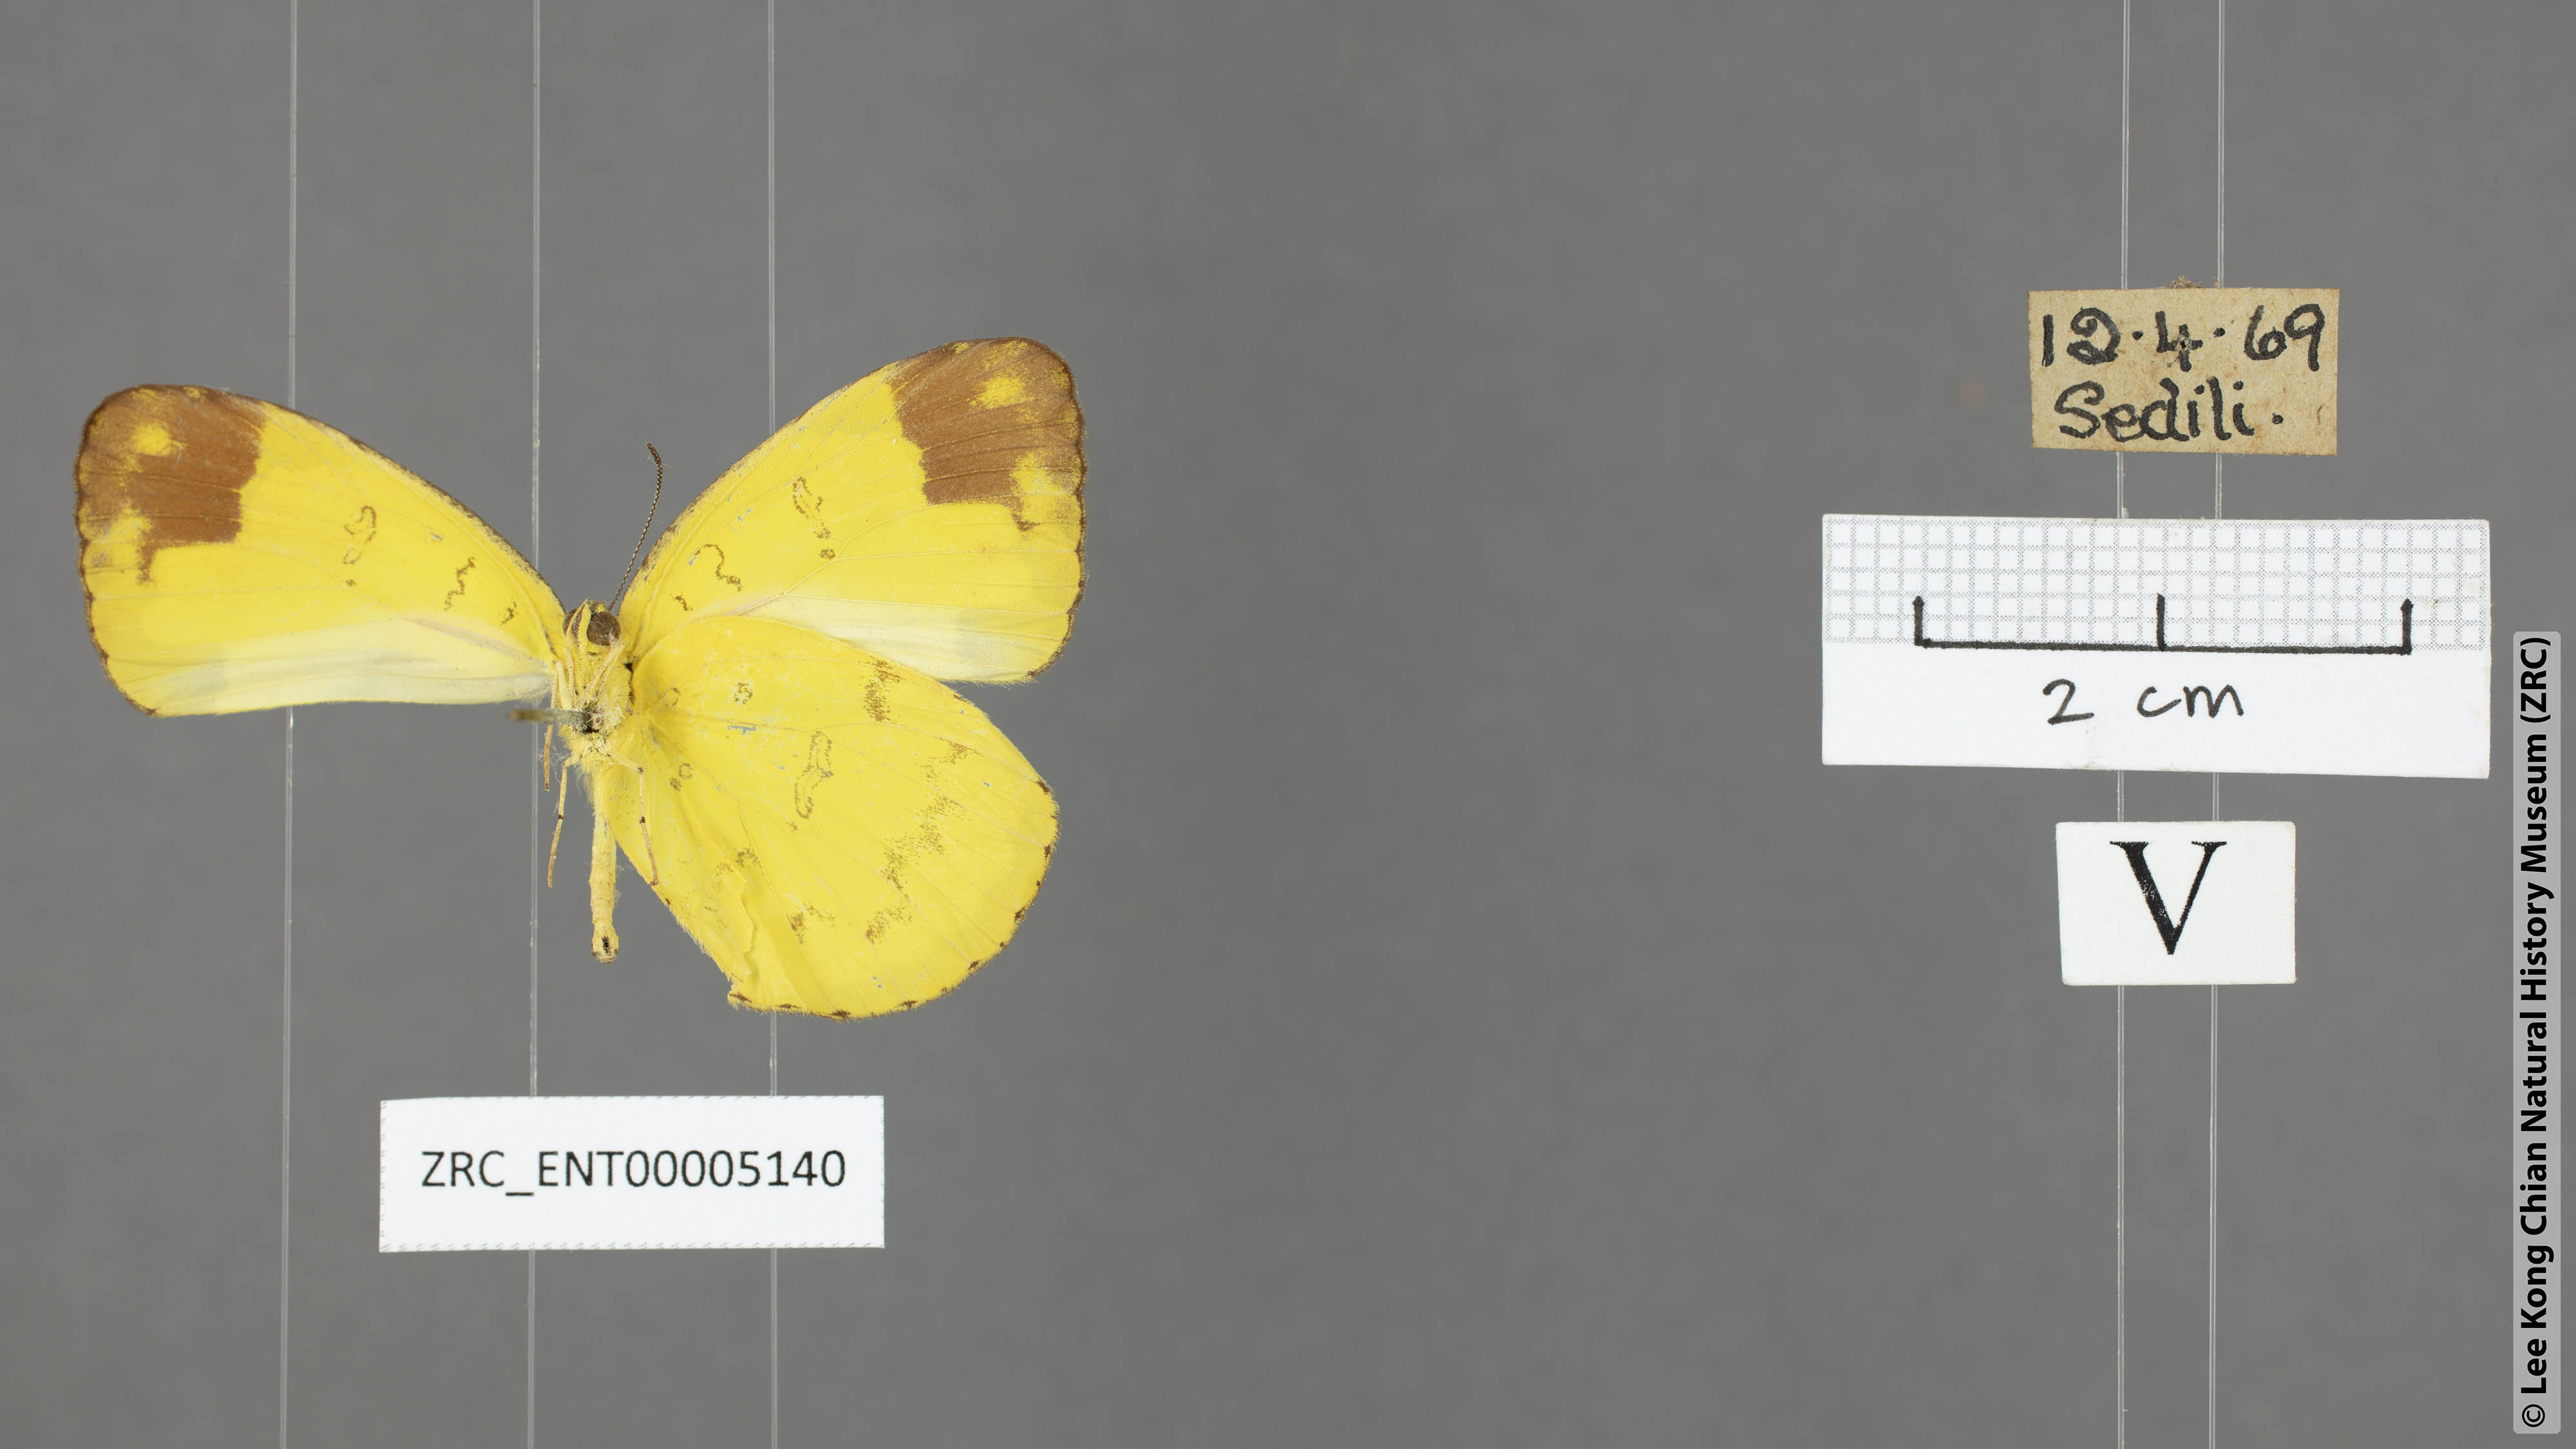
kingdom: Animalia
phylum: Arthropoda
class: Insecta
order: Lepidoptera
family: Pieridae
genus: Eurema
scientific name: Eurema simulatrix
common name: Hill grass yellow
